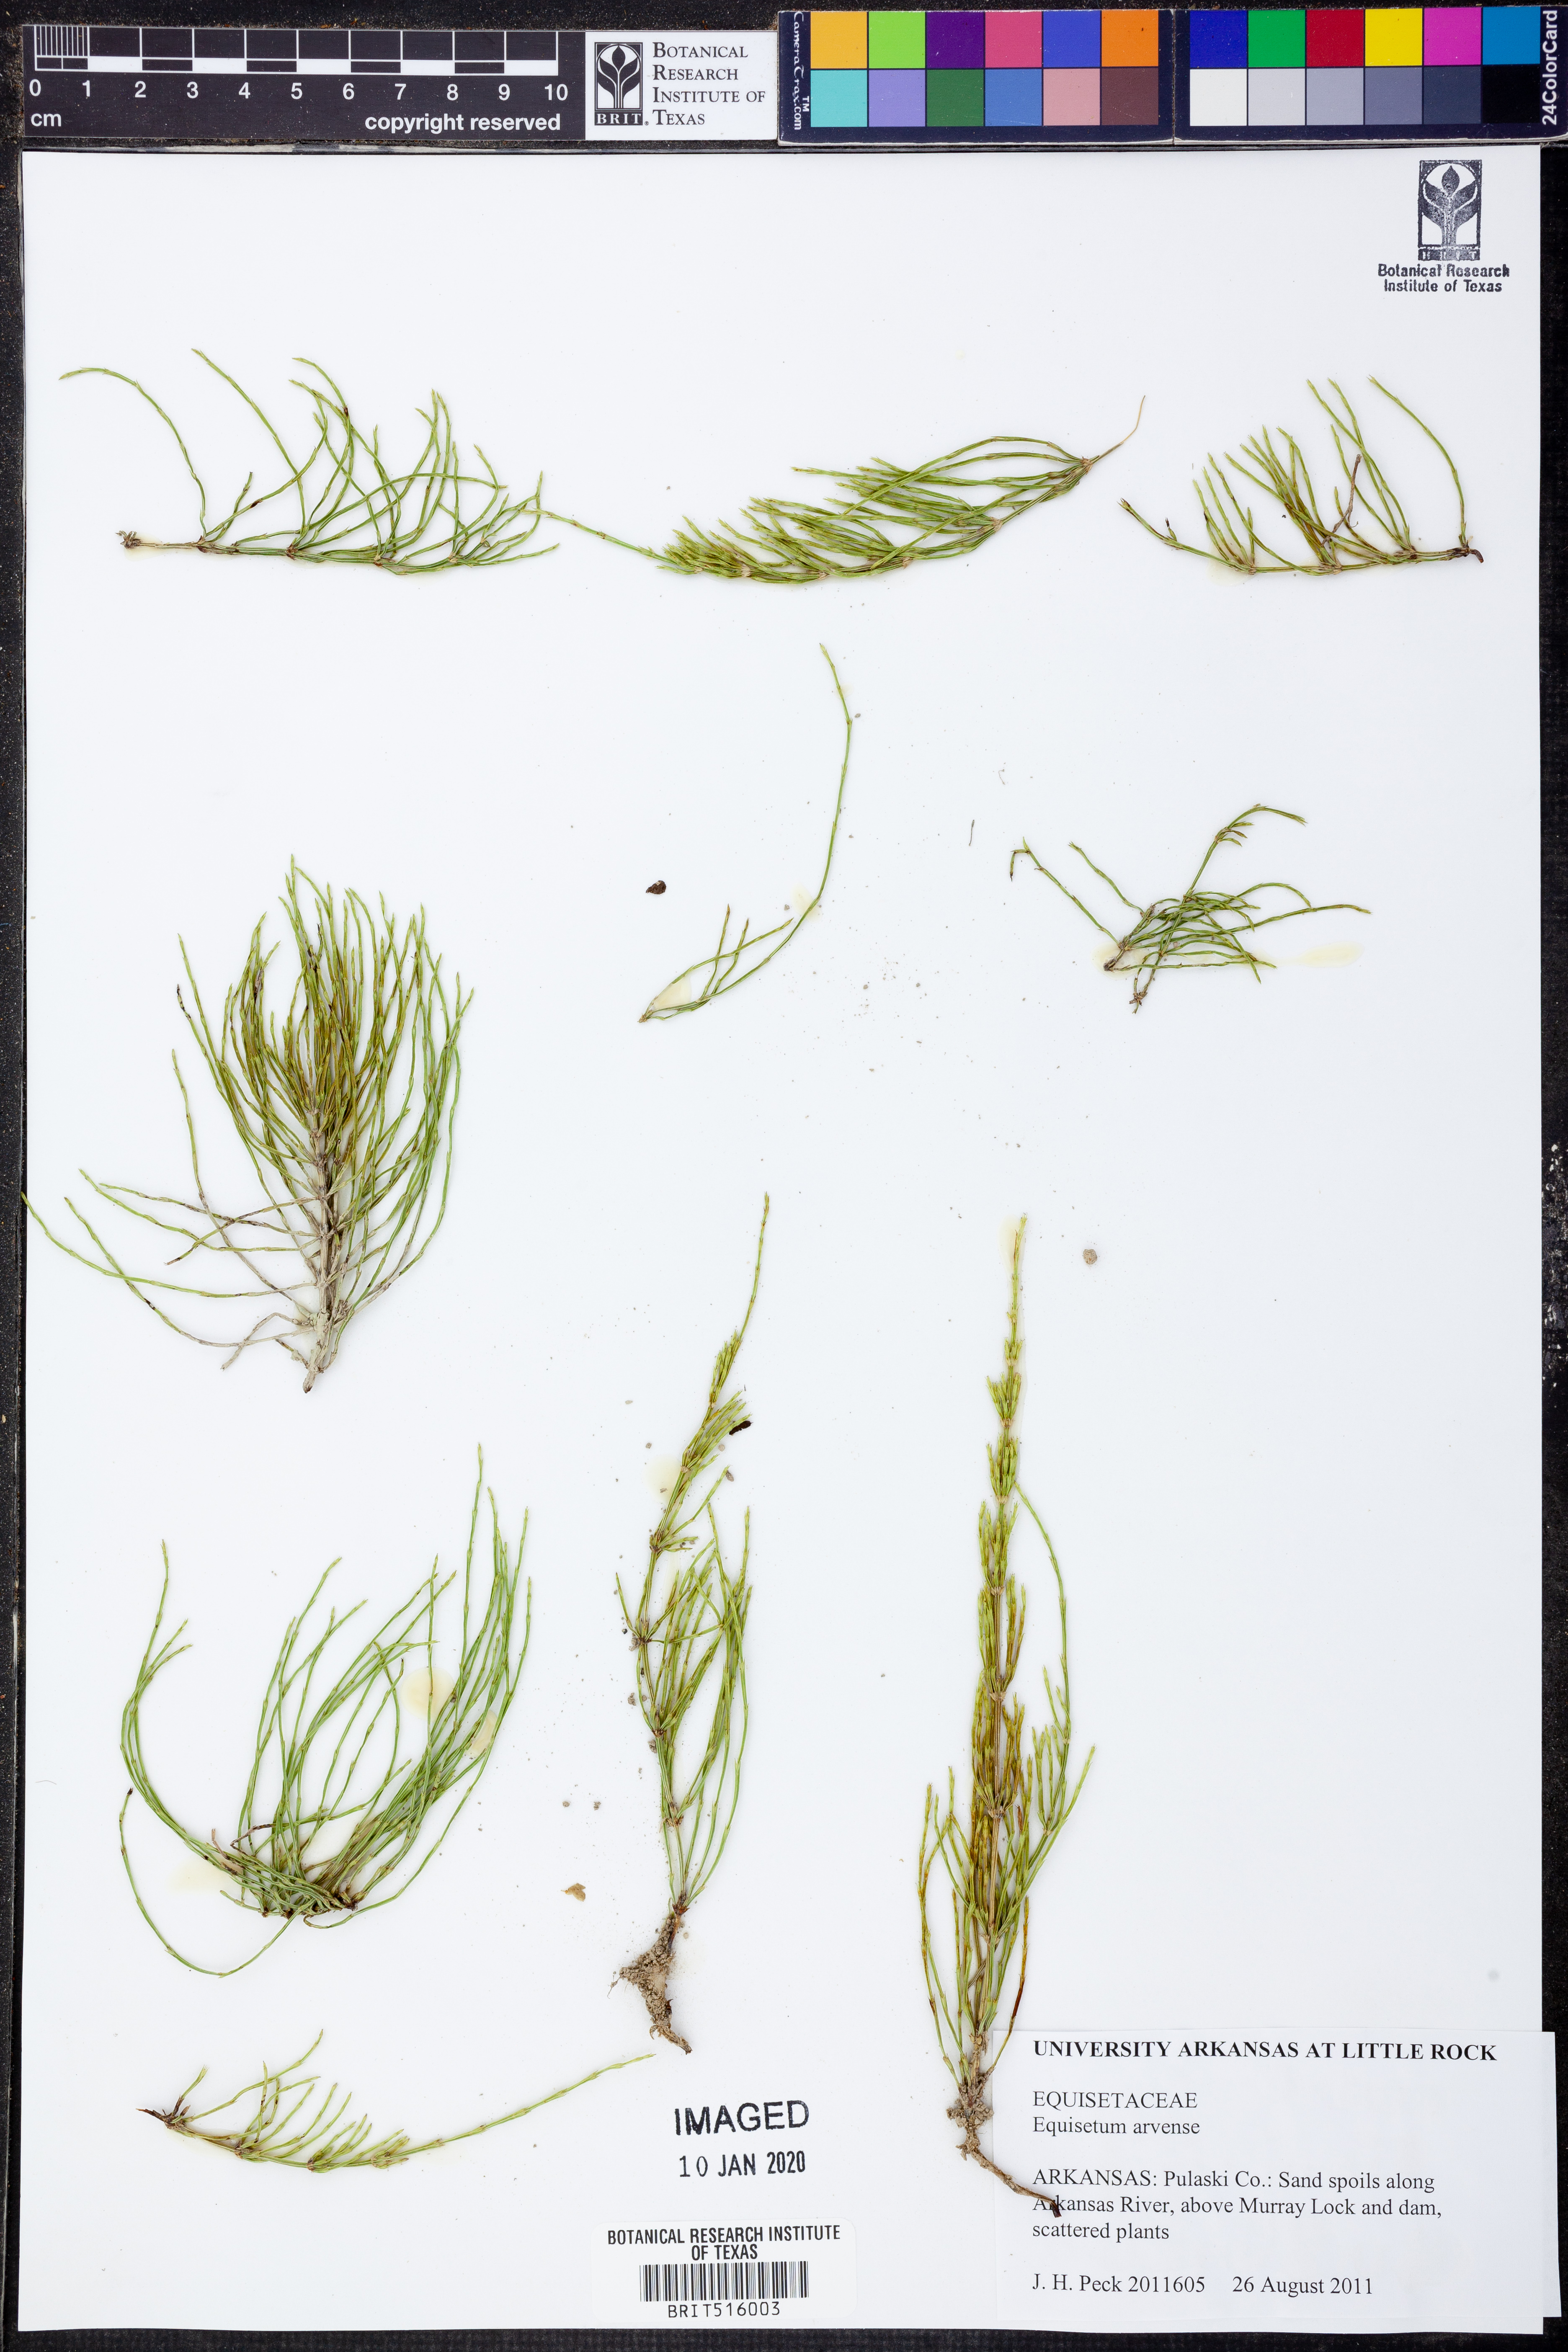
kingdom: Plantae
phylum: Tracheophyta
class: Polypodiopsida
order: Equisetales
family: Equisetaceae
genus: Equisetum
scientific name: Equisetum arvense
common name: Field horsetail
